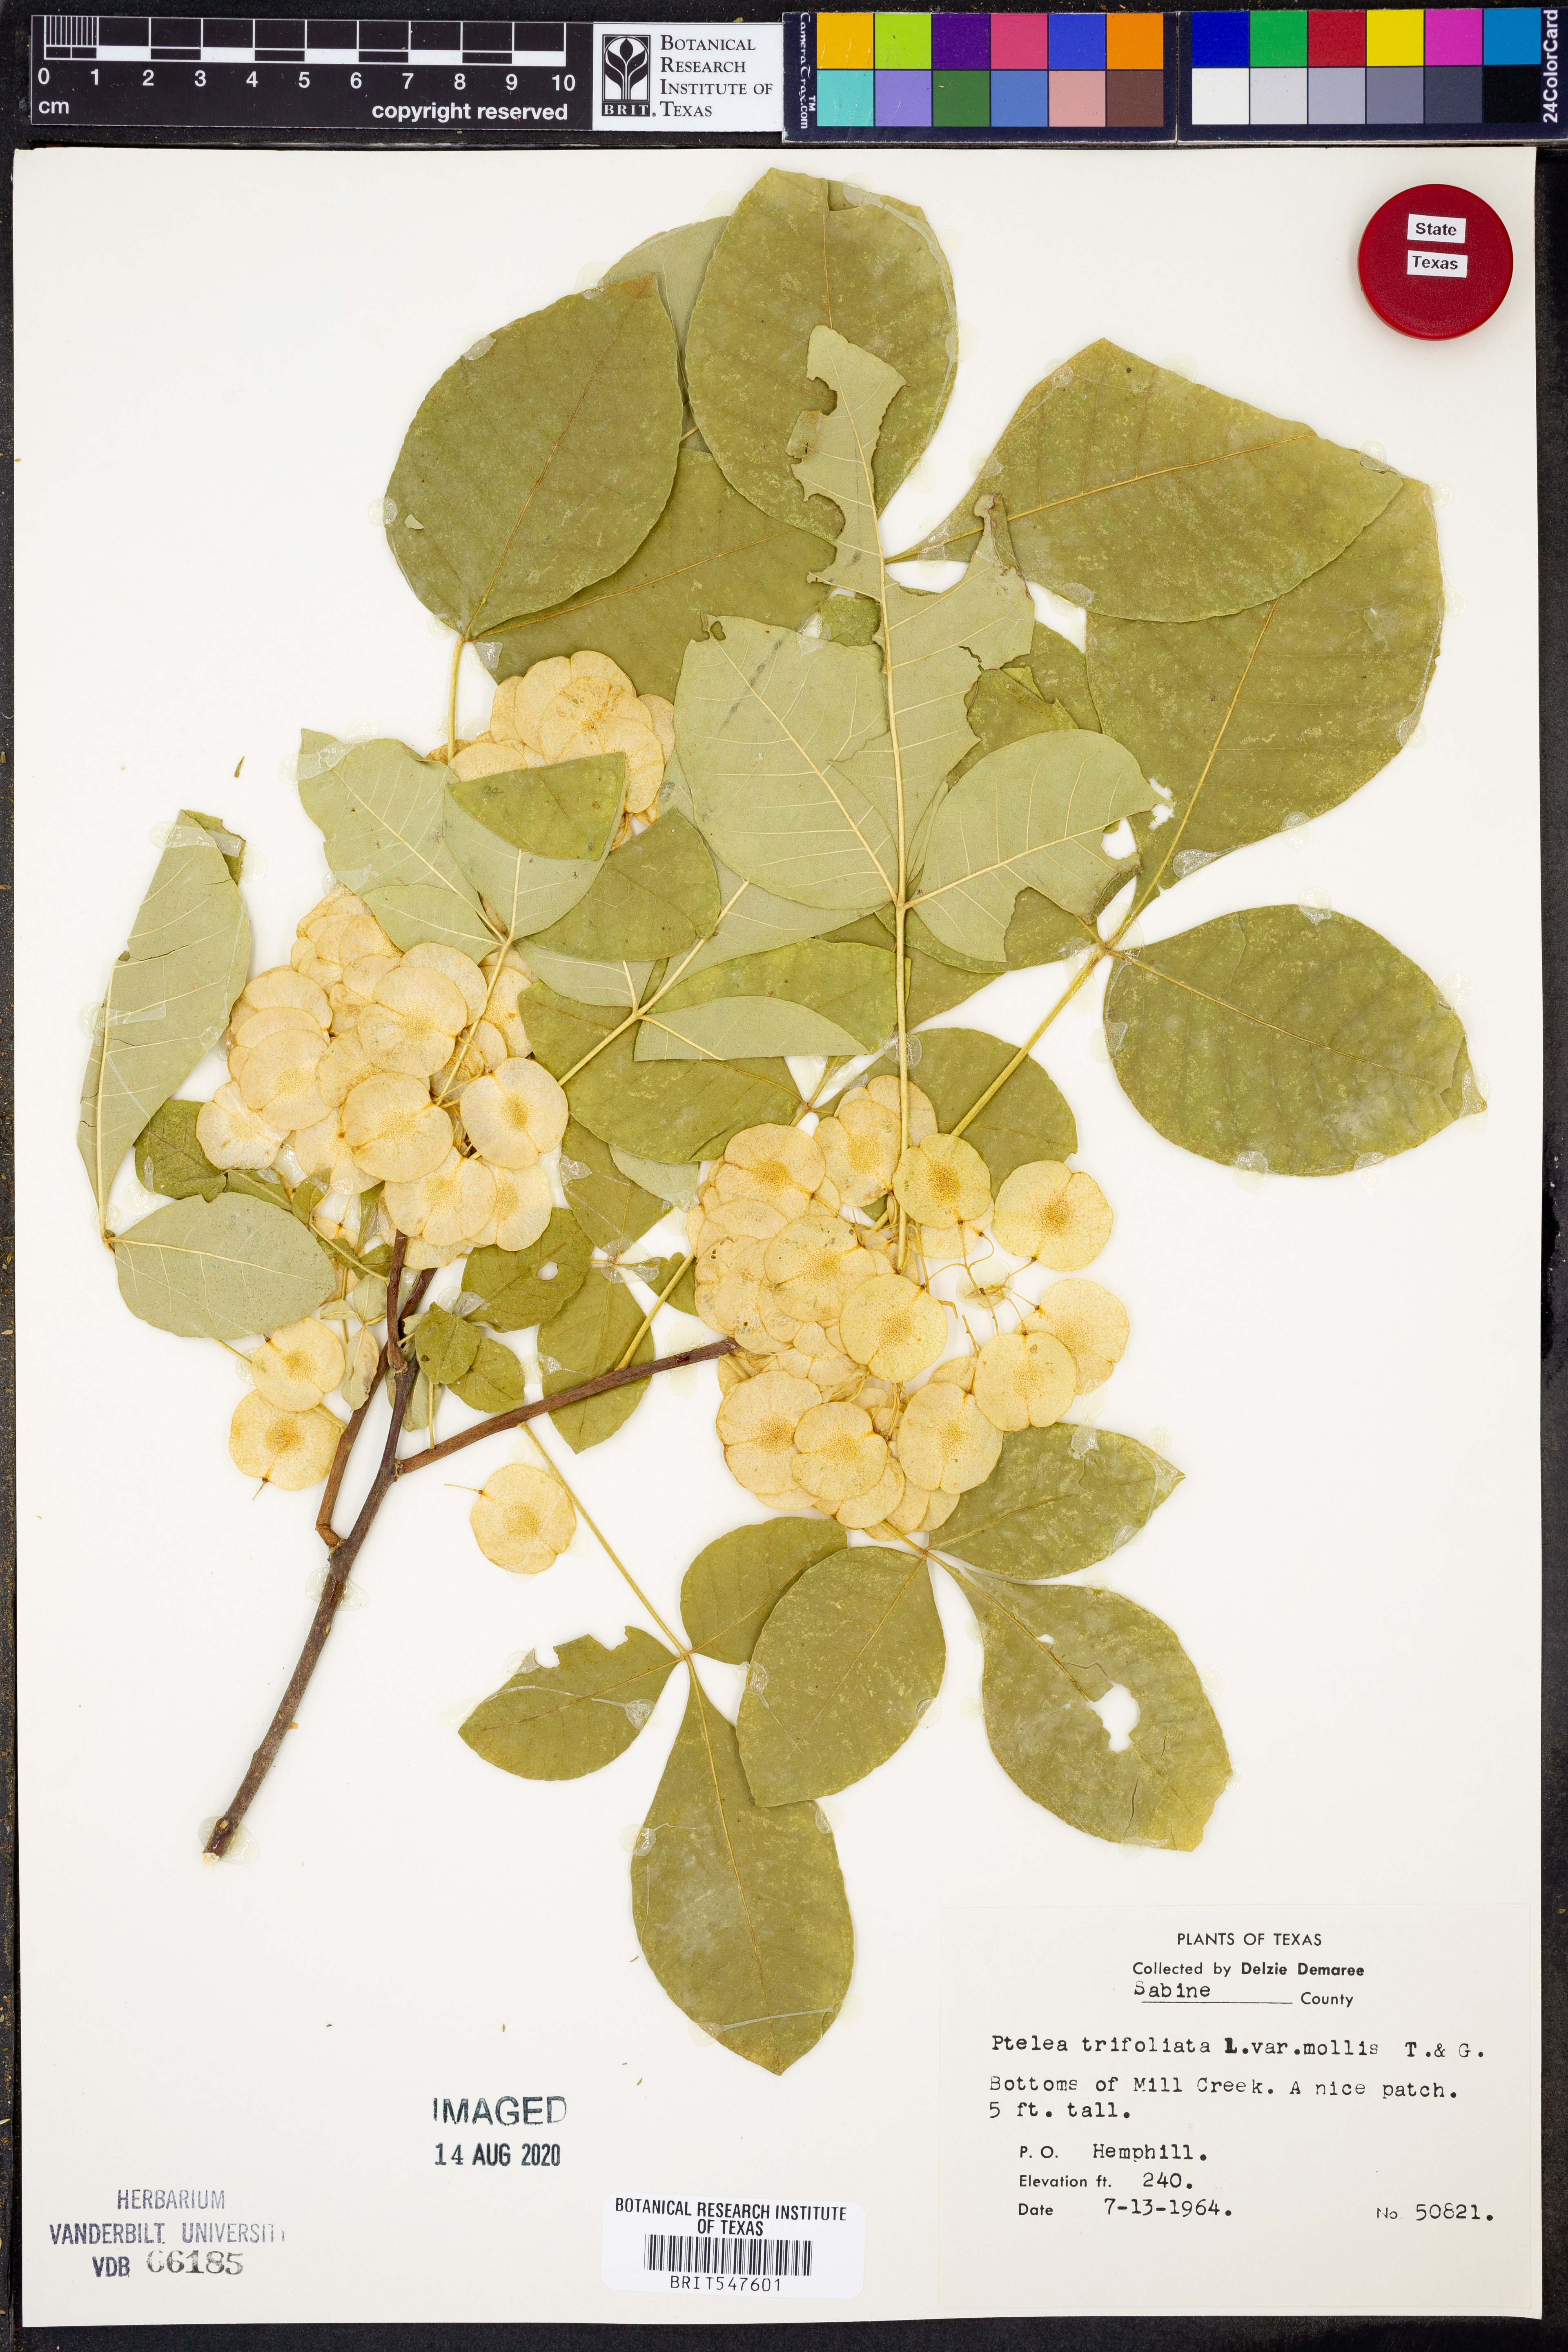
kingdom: Plantae
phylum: Tracheophyta
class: Magnoliopsida
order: Sapindales
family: Rutaceae
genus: Ptelea
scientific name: Ptelea trifoliata
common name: Common hop-tree
